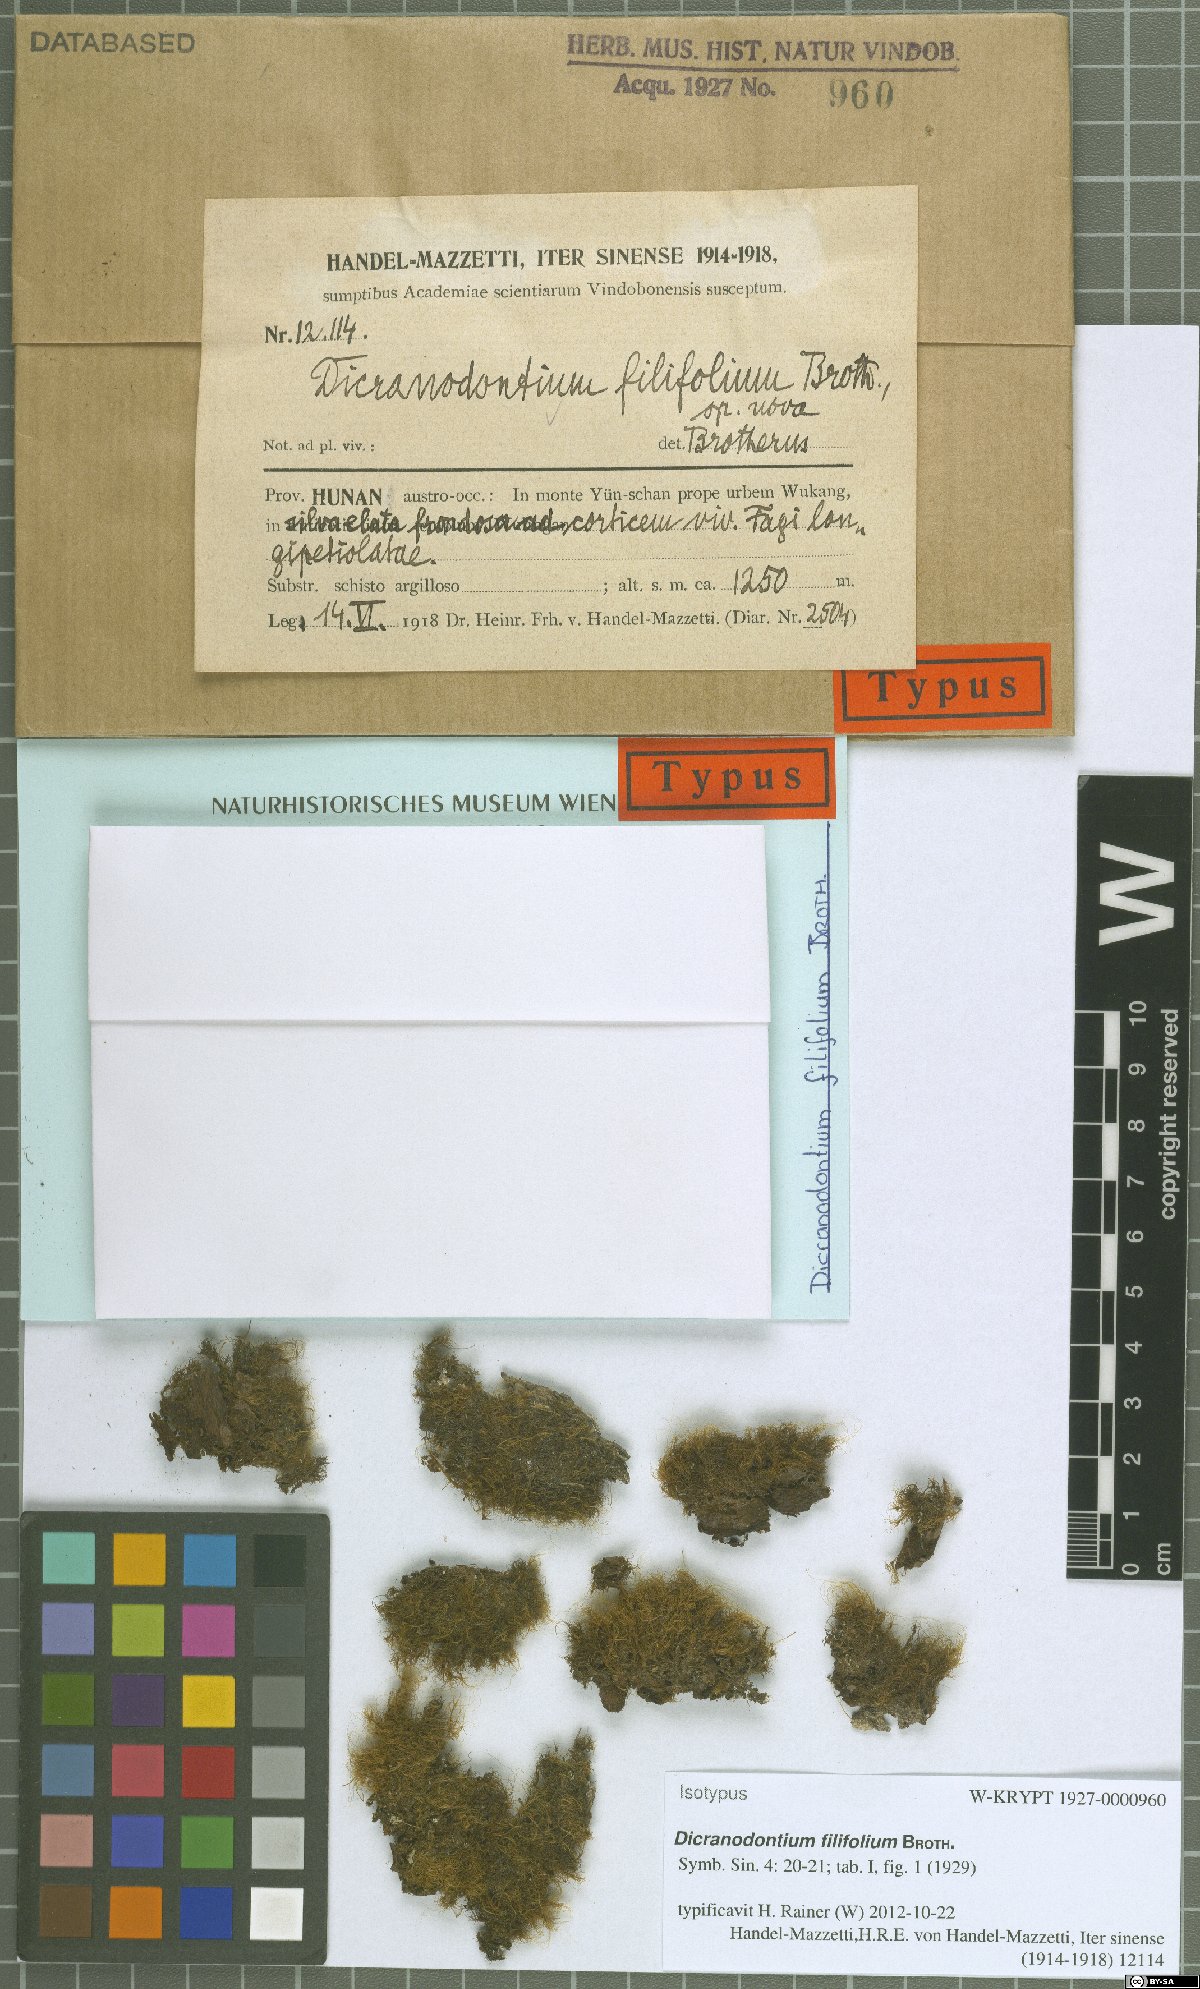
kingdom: Plantae
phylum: Bryophyta
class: Bryopsida
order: Dicranales
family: Leucobryaceae
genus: Dicranodontium
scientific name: Dicranodontium filifolium
